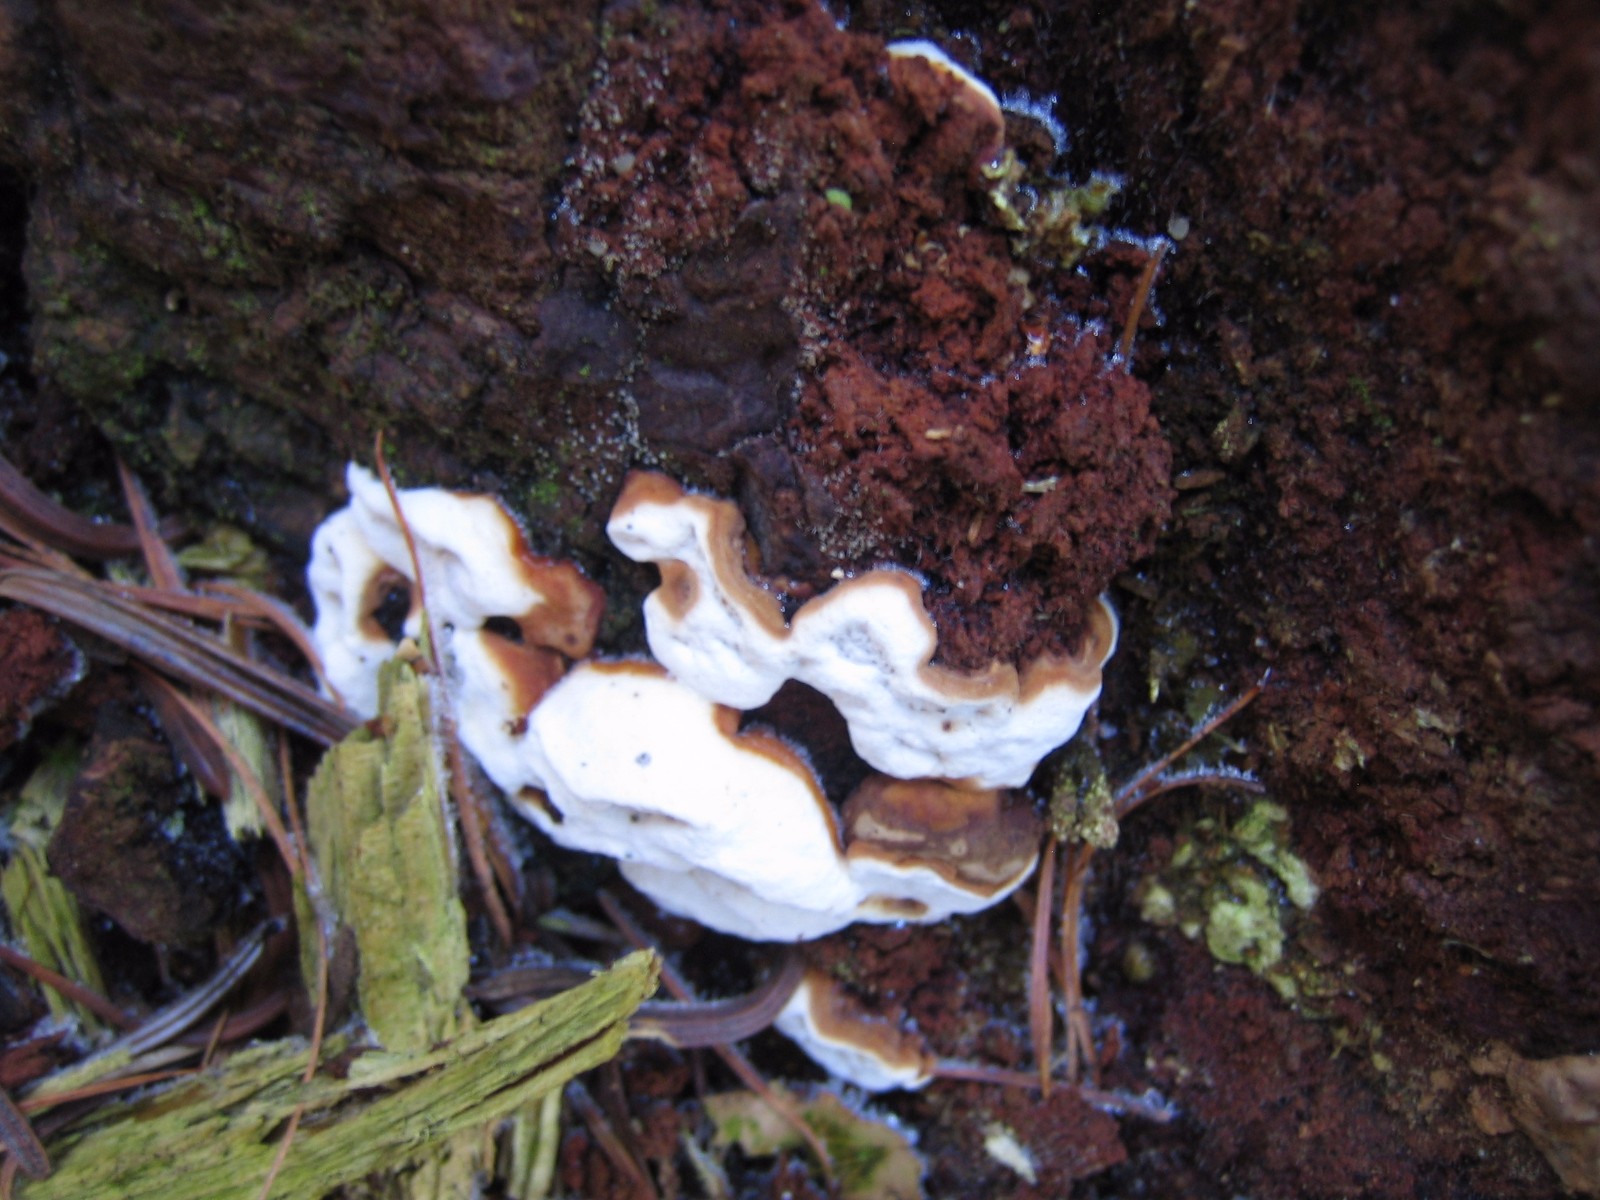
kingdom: Fungi
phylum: Basidiomycota
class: Agaricomycetes
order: Russulales
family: Bondarzewiaceae
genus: Heterobasidion
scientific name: Heterobasidion annosum
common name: almindelig rodfordærver
